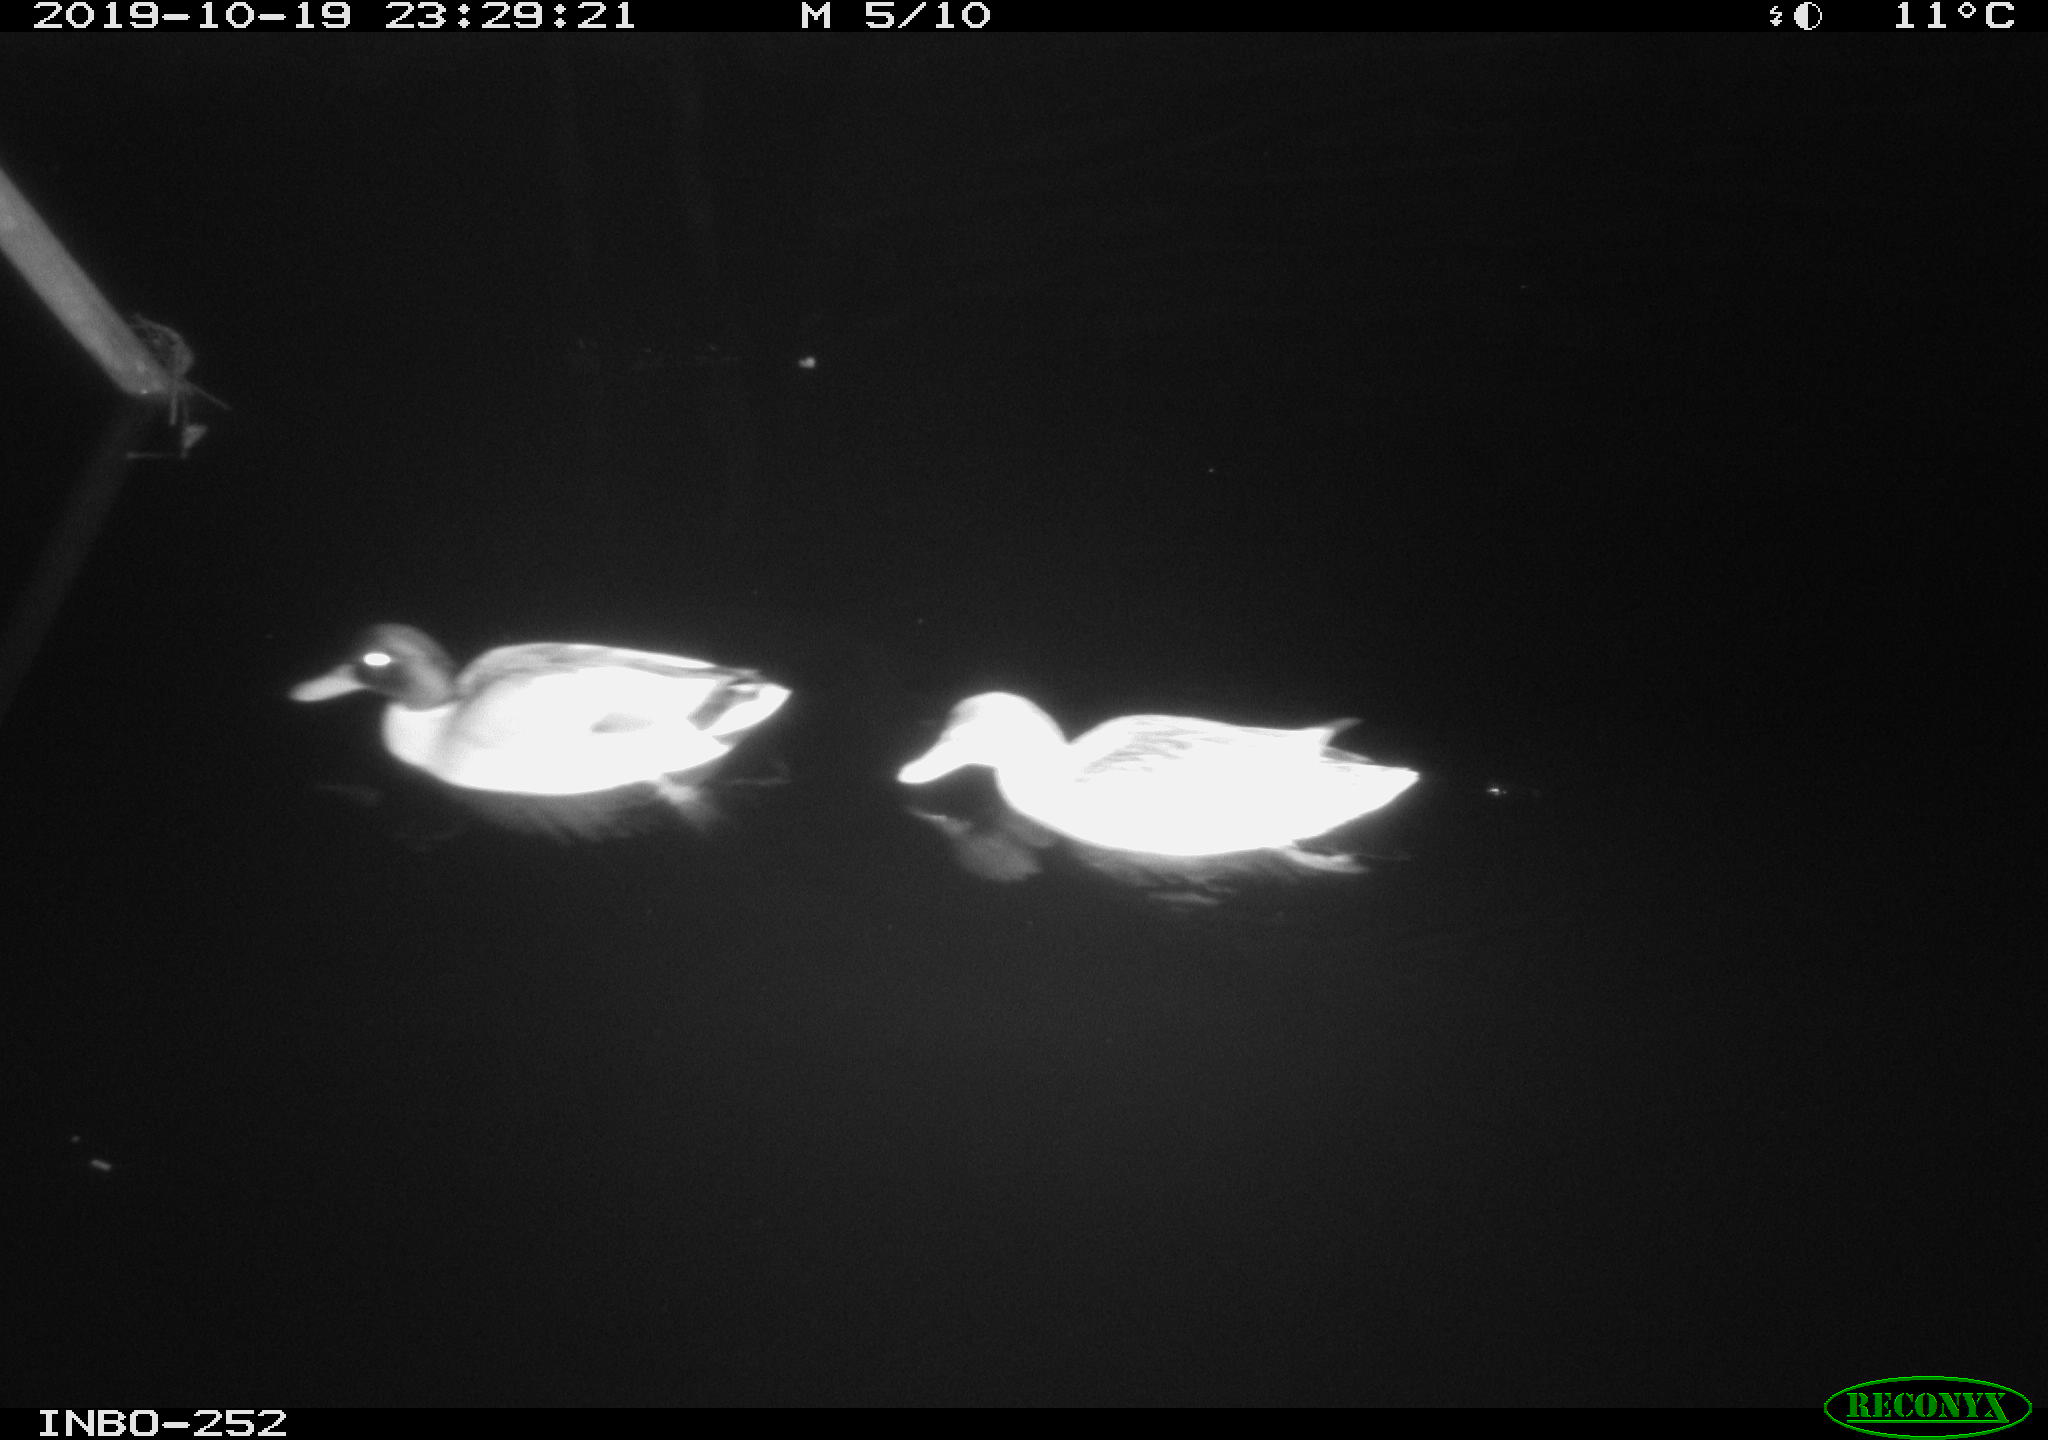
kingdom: Animalia
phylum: Chordata
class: Aves
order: Anseriformes
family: Anatidae
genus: Anas
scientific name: Anas platyrhynchos
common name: Mallard
